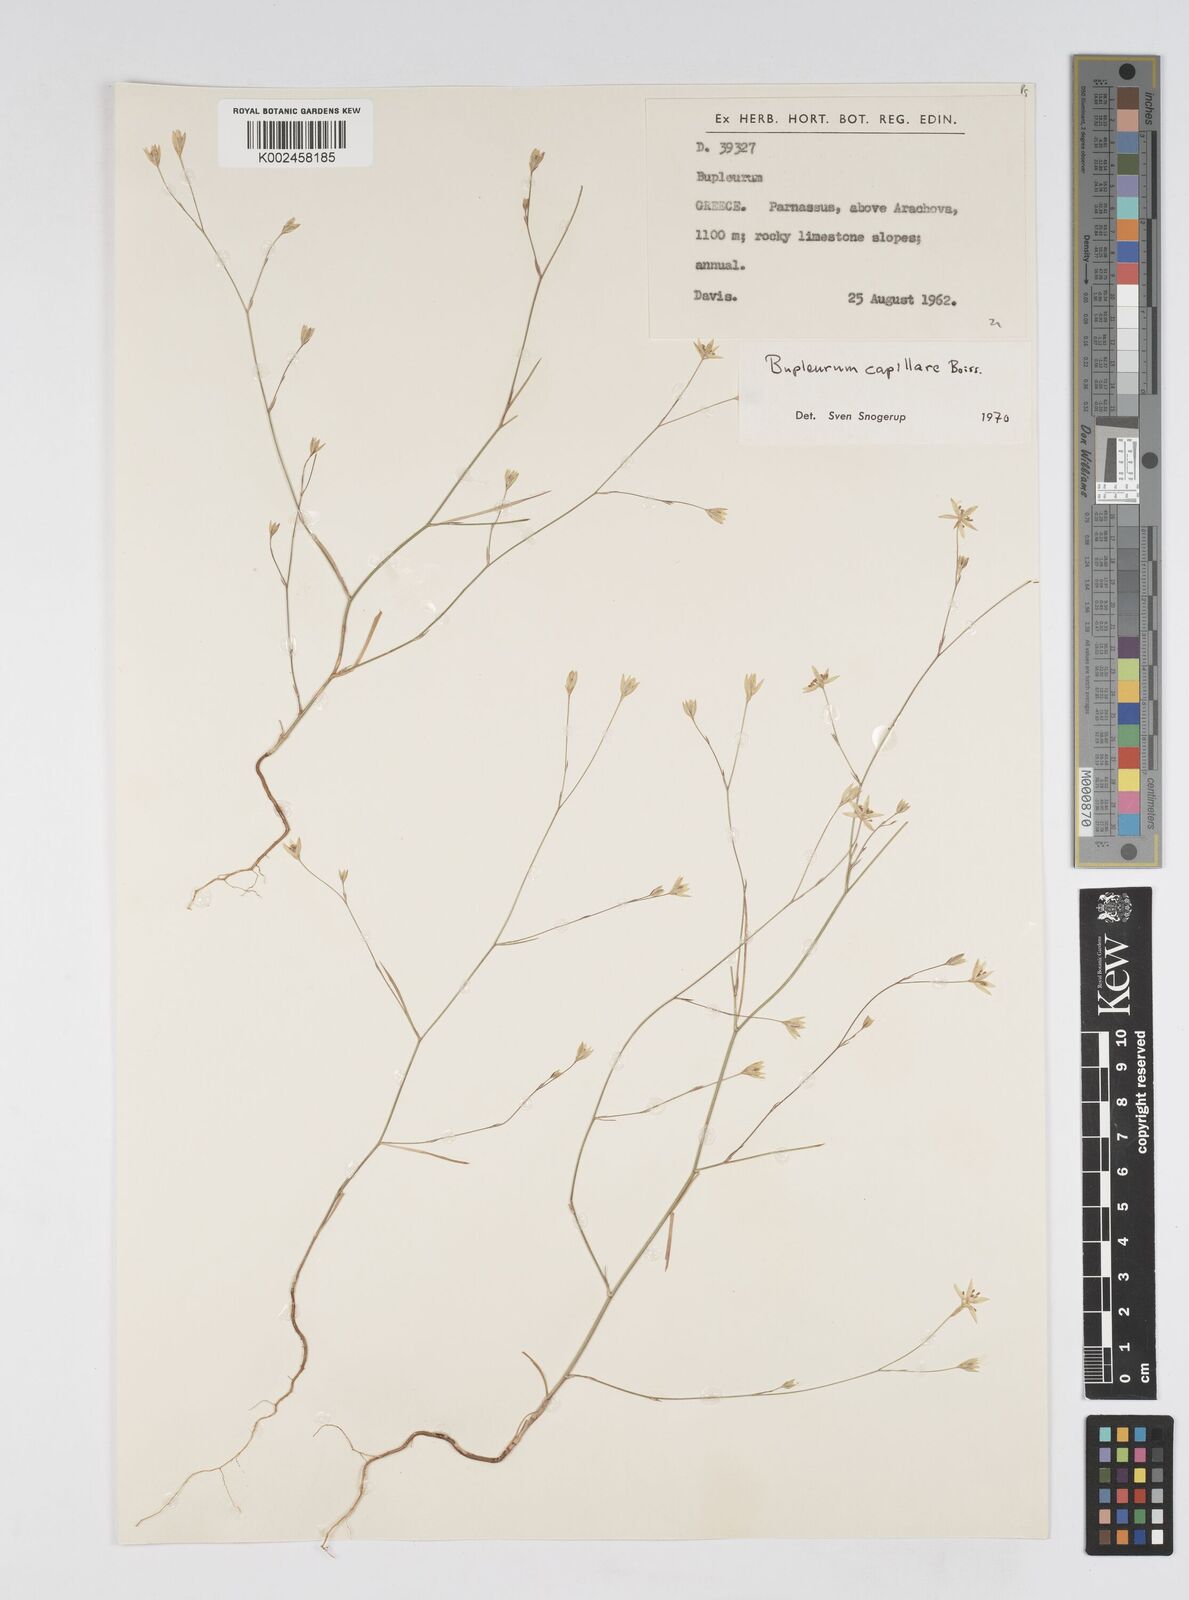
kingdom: Plantae
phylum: Tracheophyta
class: Magnoliopsida
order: Apiales
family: Apiaceae
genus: Bupleurum
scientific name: Bupleurum capillare
